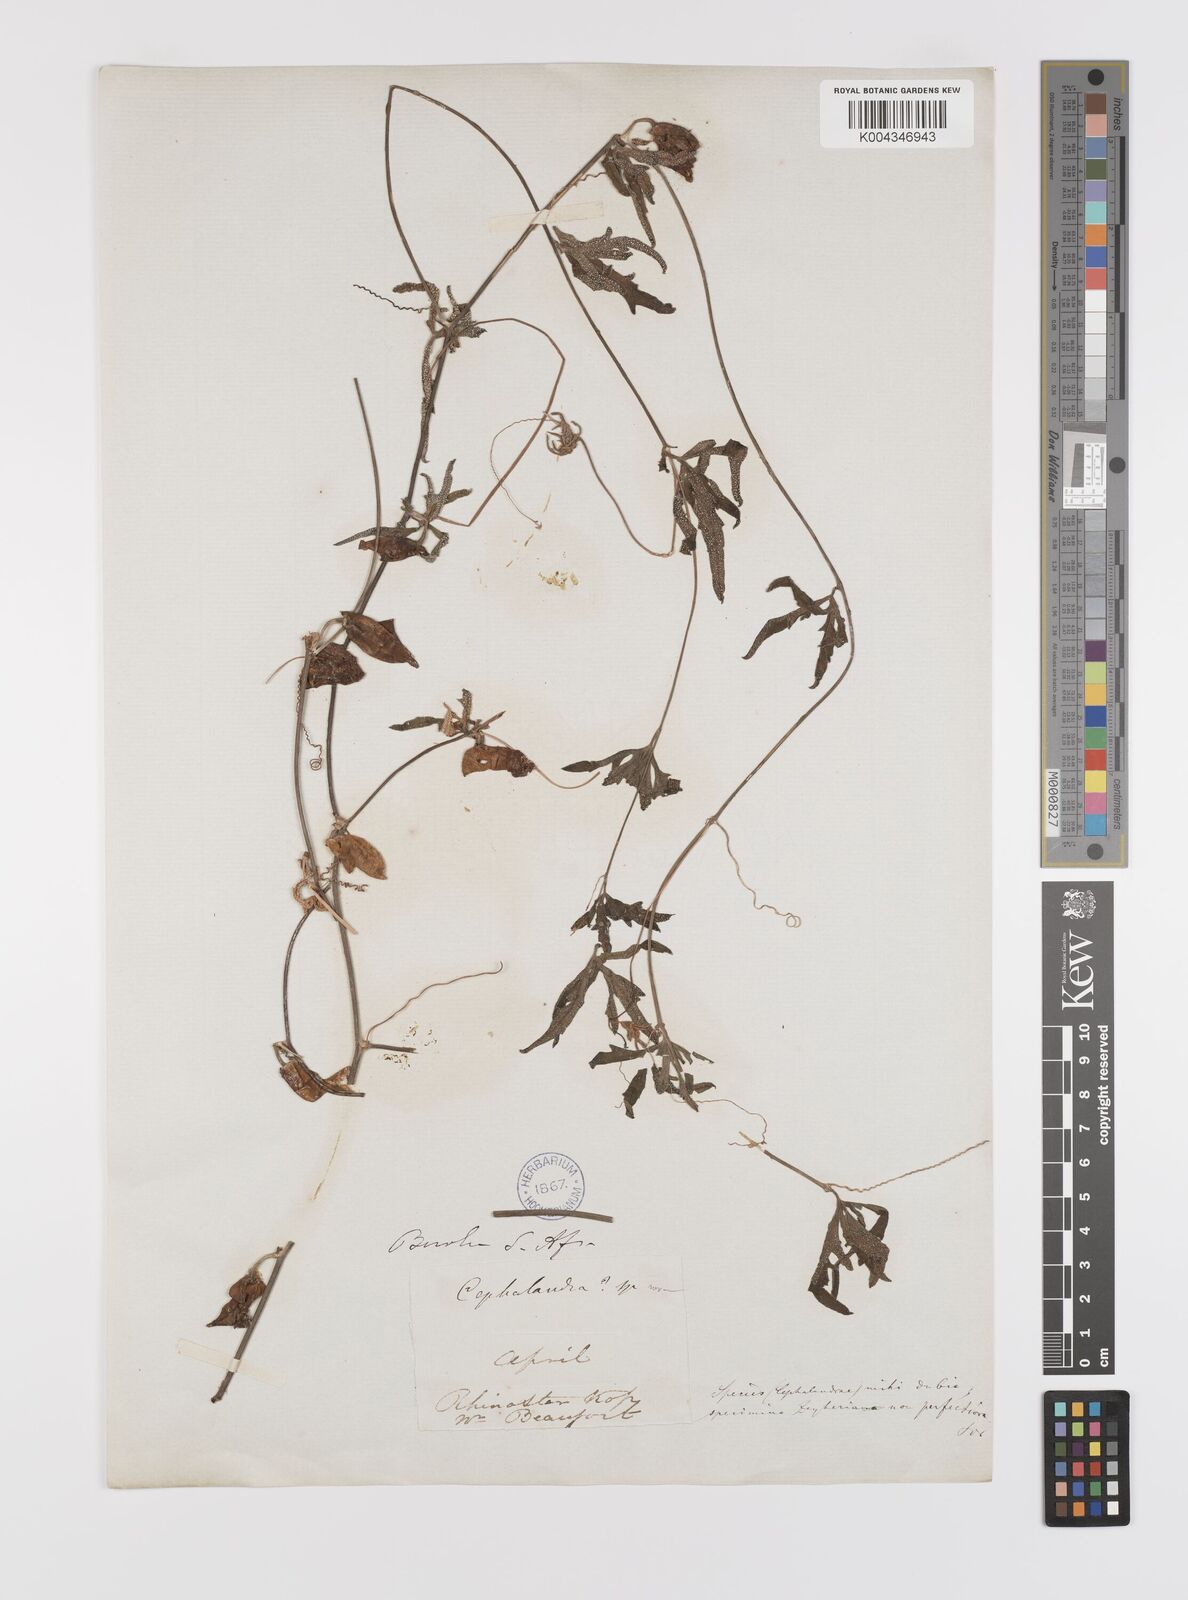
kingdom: Plantae
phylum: Tracheophyta
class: Magnoliopsida
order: Cucurbitales
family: Cucurbitaceae
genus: Coccinia
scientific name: Coccinia
